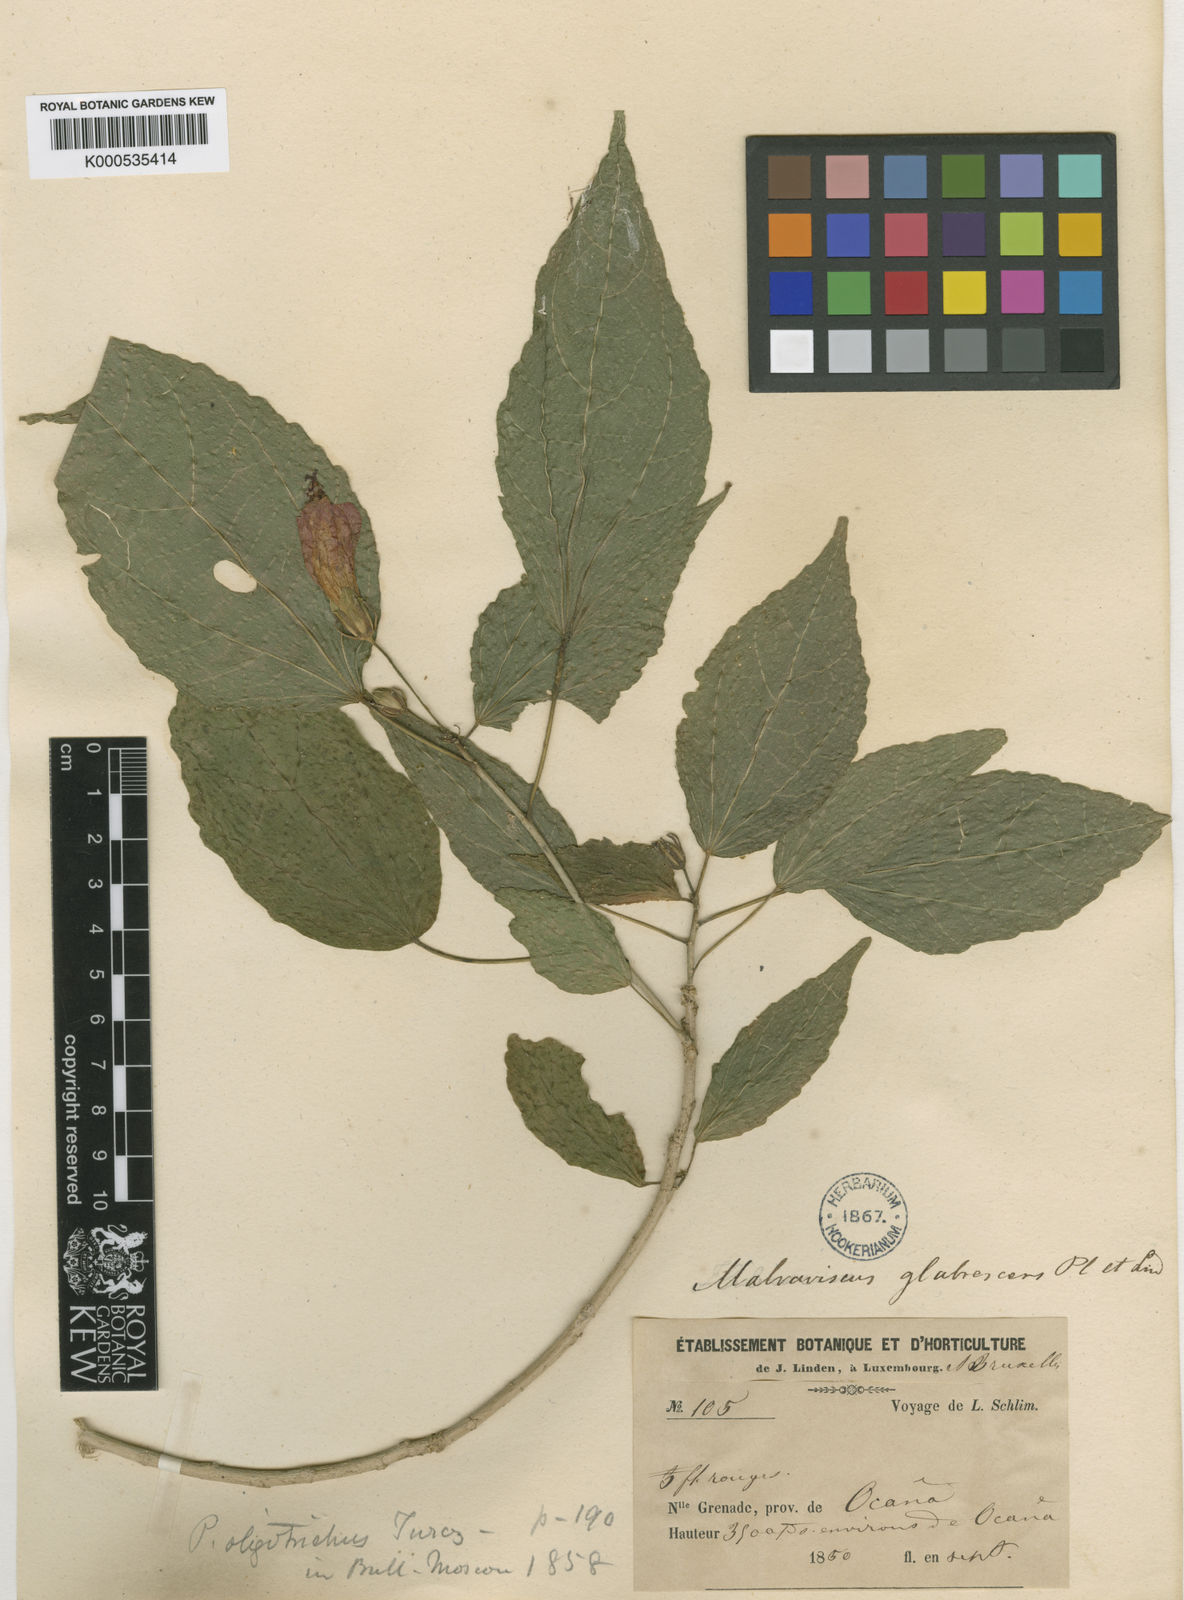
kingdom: Plantae
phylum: Tracheophyta
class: Magnoliopsida
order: Malvales
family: Malvaceae
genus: Malvaviscus
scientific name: Malvaviscus penduliflorus
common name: Mazapan
